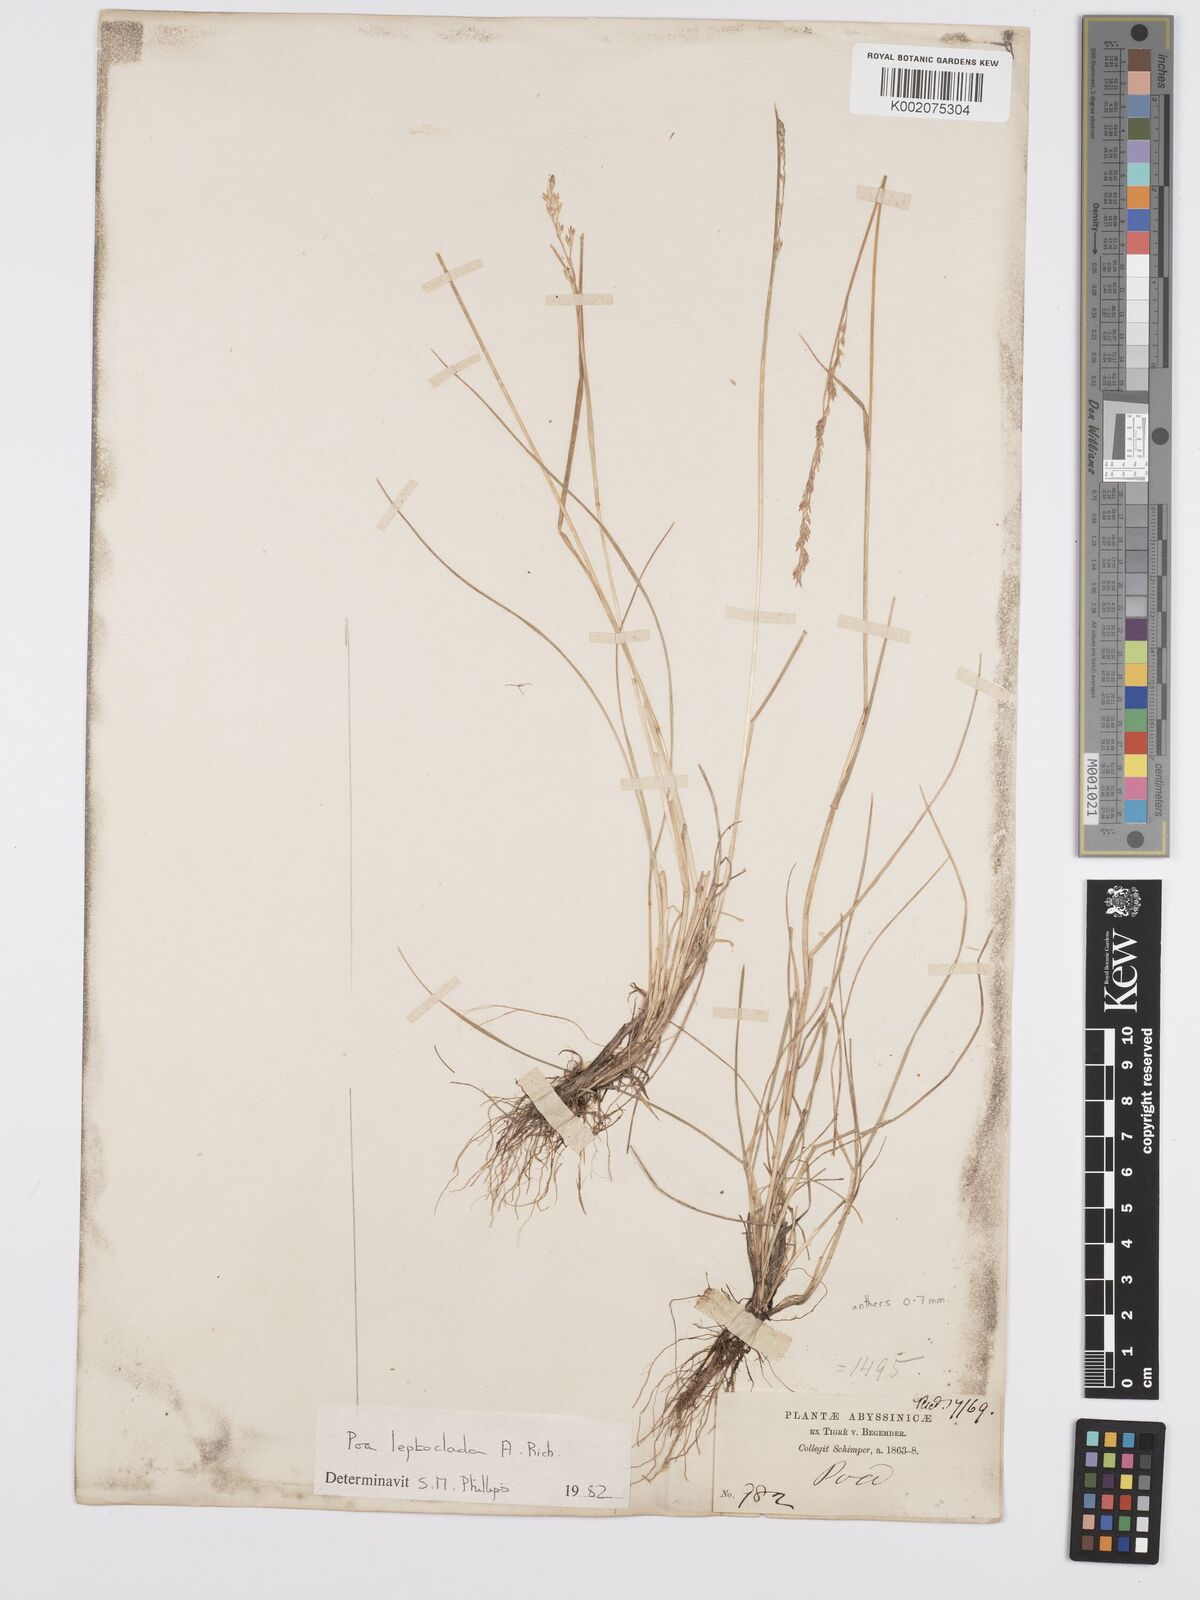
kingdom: Plantae
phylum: Tracheophyta
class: Liliopsida
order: Poales
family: Poaceae
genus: Poa
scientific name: Poa leptoclada
